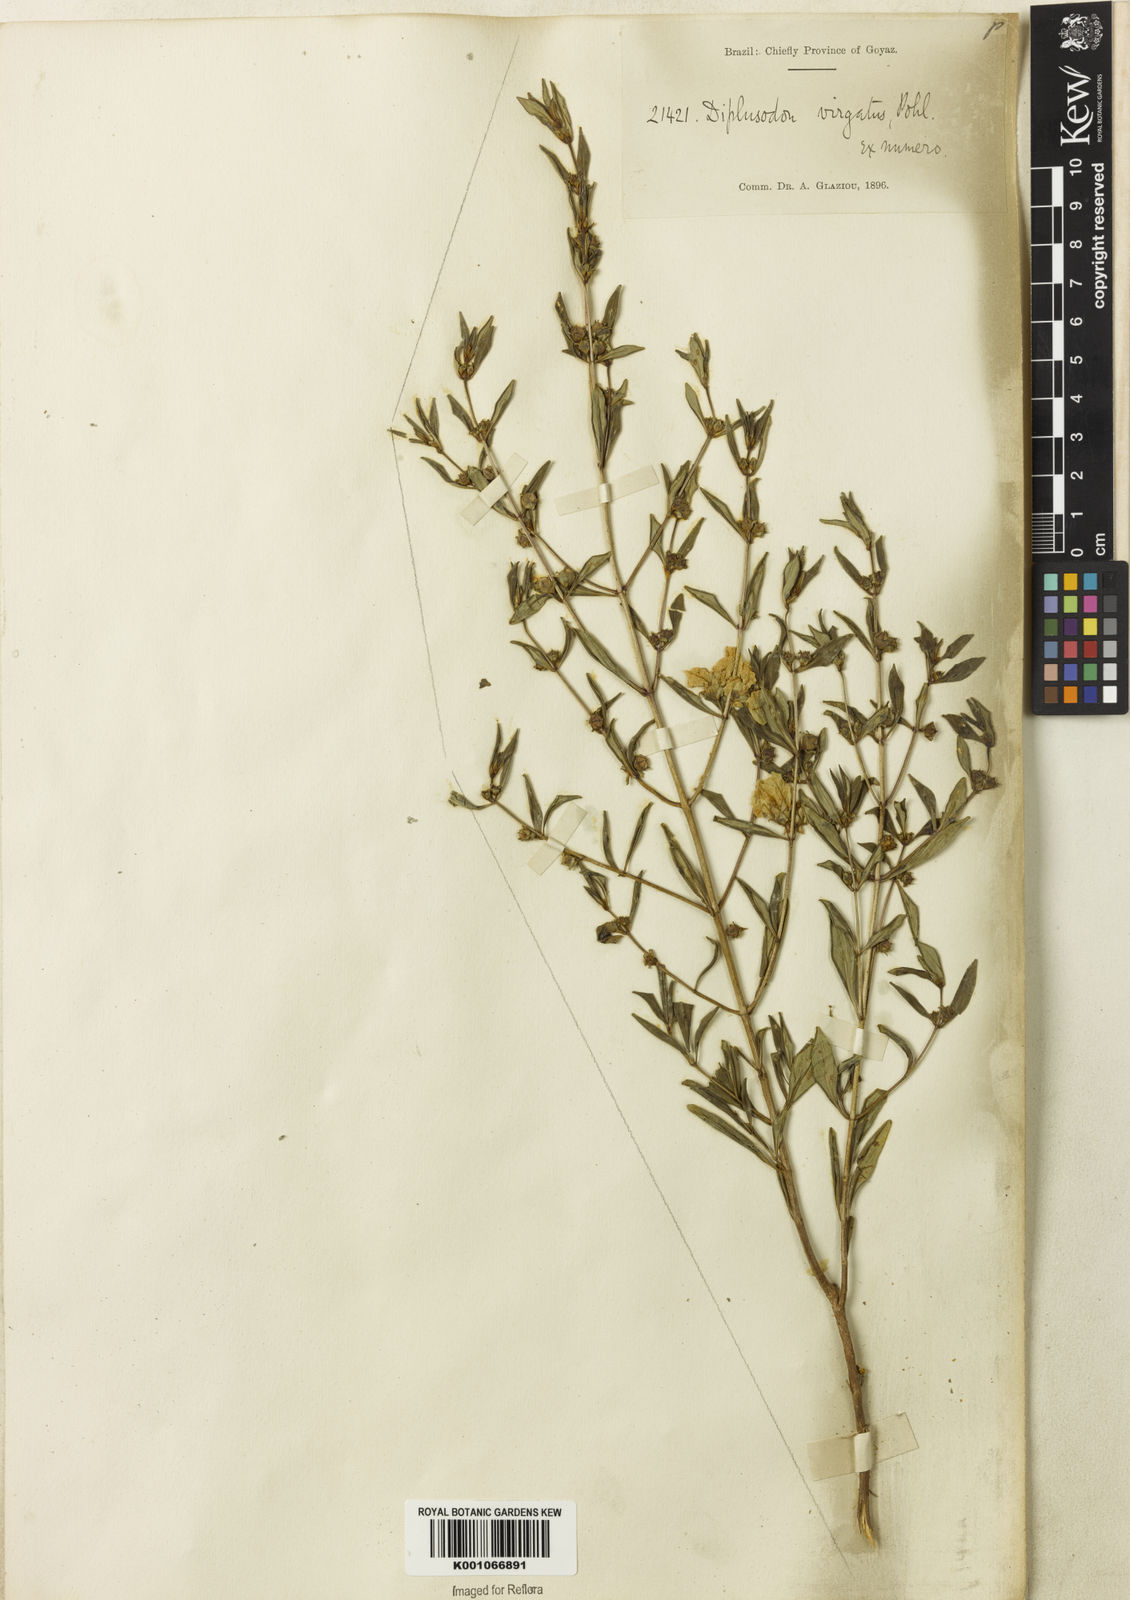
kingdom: Plantae
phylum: Tracheophyta
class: Magnoliopsida
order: Myrtales
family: Lythraceae
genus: Diplusodon
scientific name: Diplusodon virgatus
